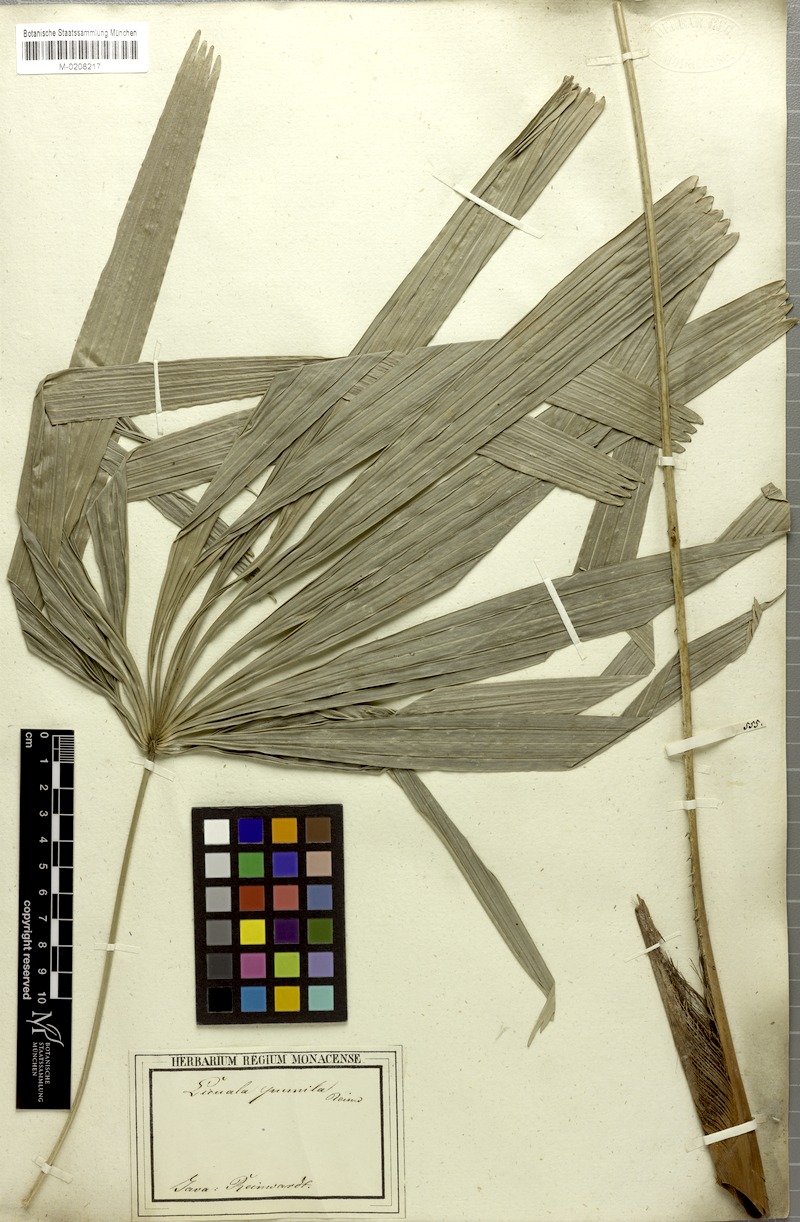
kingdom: Plantae
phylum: Tracheophyta
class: Liliopsida
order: Arecales
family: Arecaceae
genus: Licuala
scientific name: Licuala pumila
